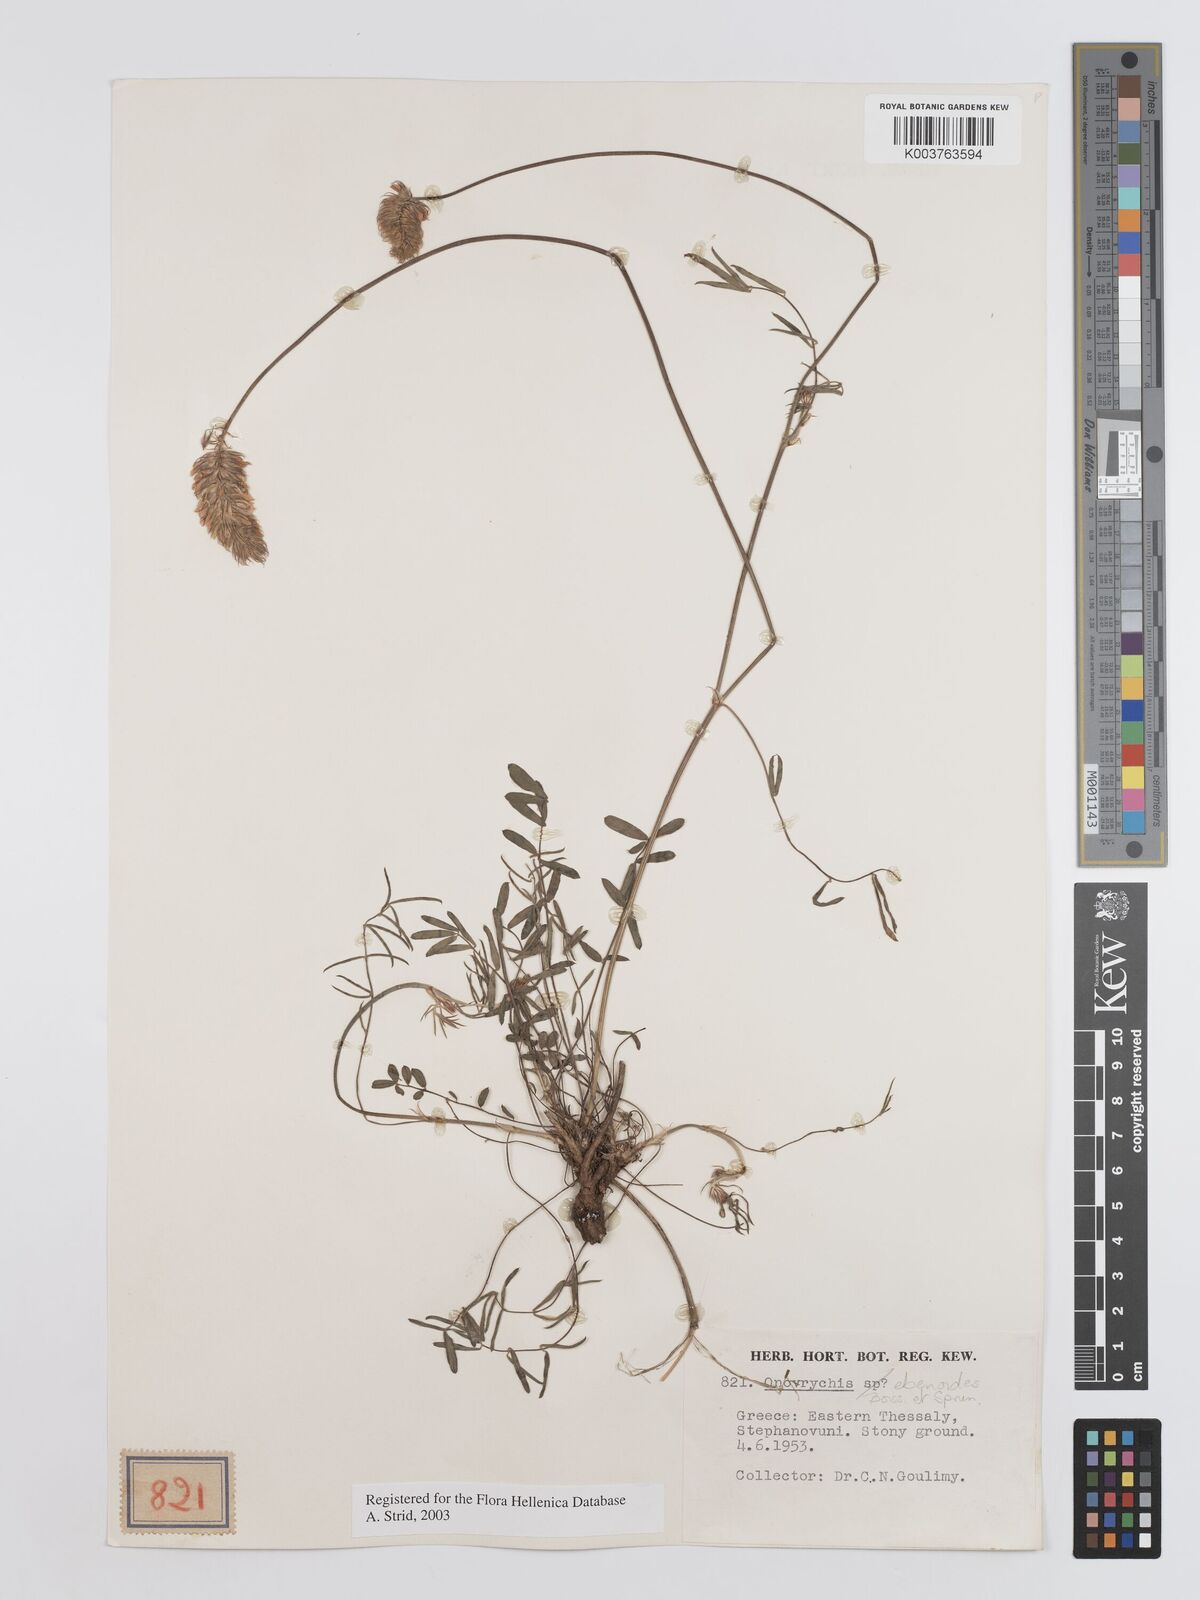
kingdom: Plantae
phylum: Tracheophyta
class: Magnoliopsida
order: Fabales
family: Fabaceae
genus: Onobrychis
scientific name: Onobrychis ebenoides
